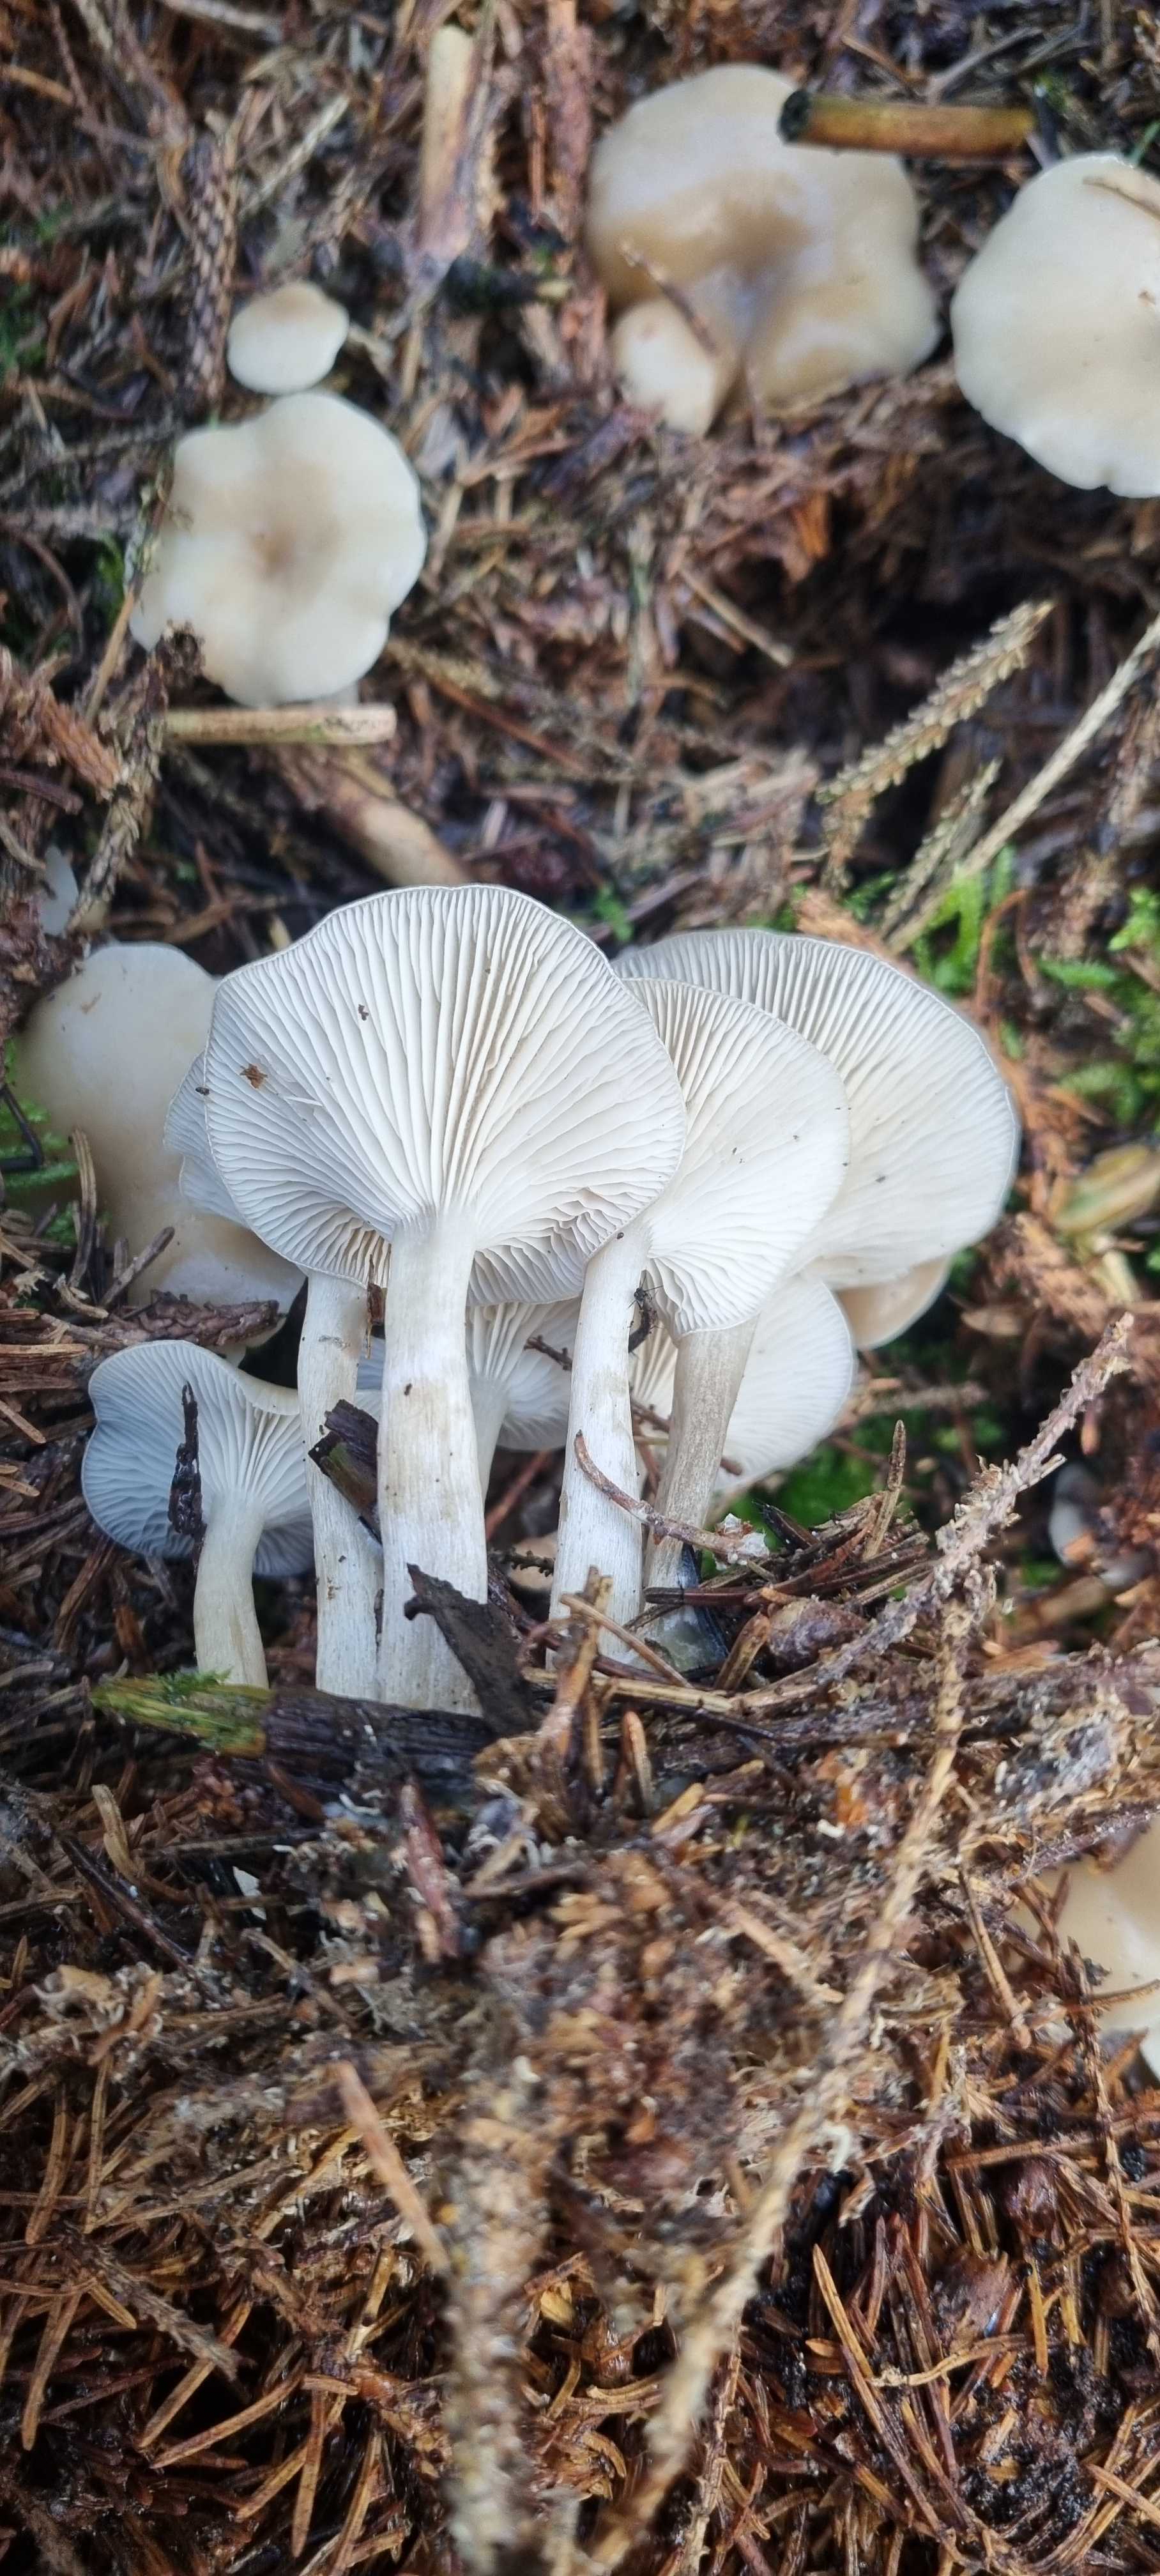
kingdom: Fungi
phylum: Basidiomycota
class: Agaricomycetes
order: Agaricales
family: Tricholomataceae
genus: Clitocybe
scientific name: Clitocybe metachroa
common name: grå tragthat
